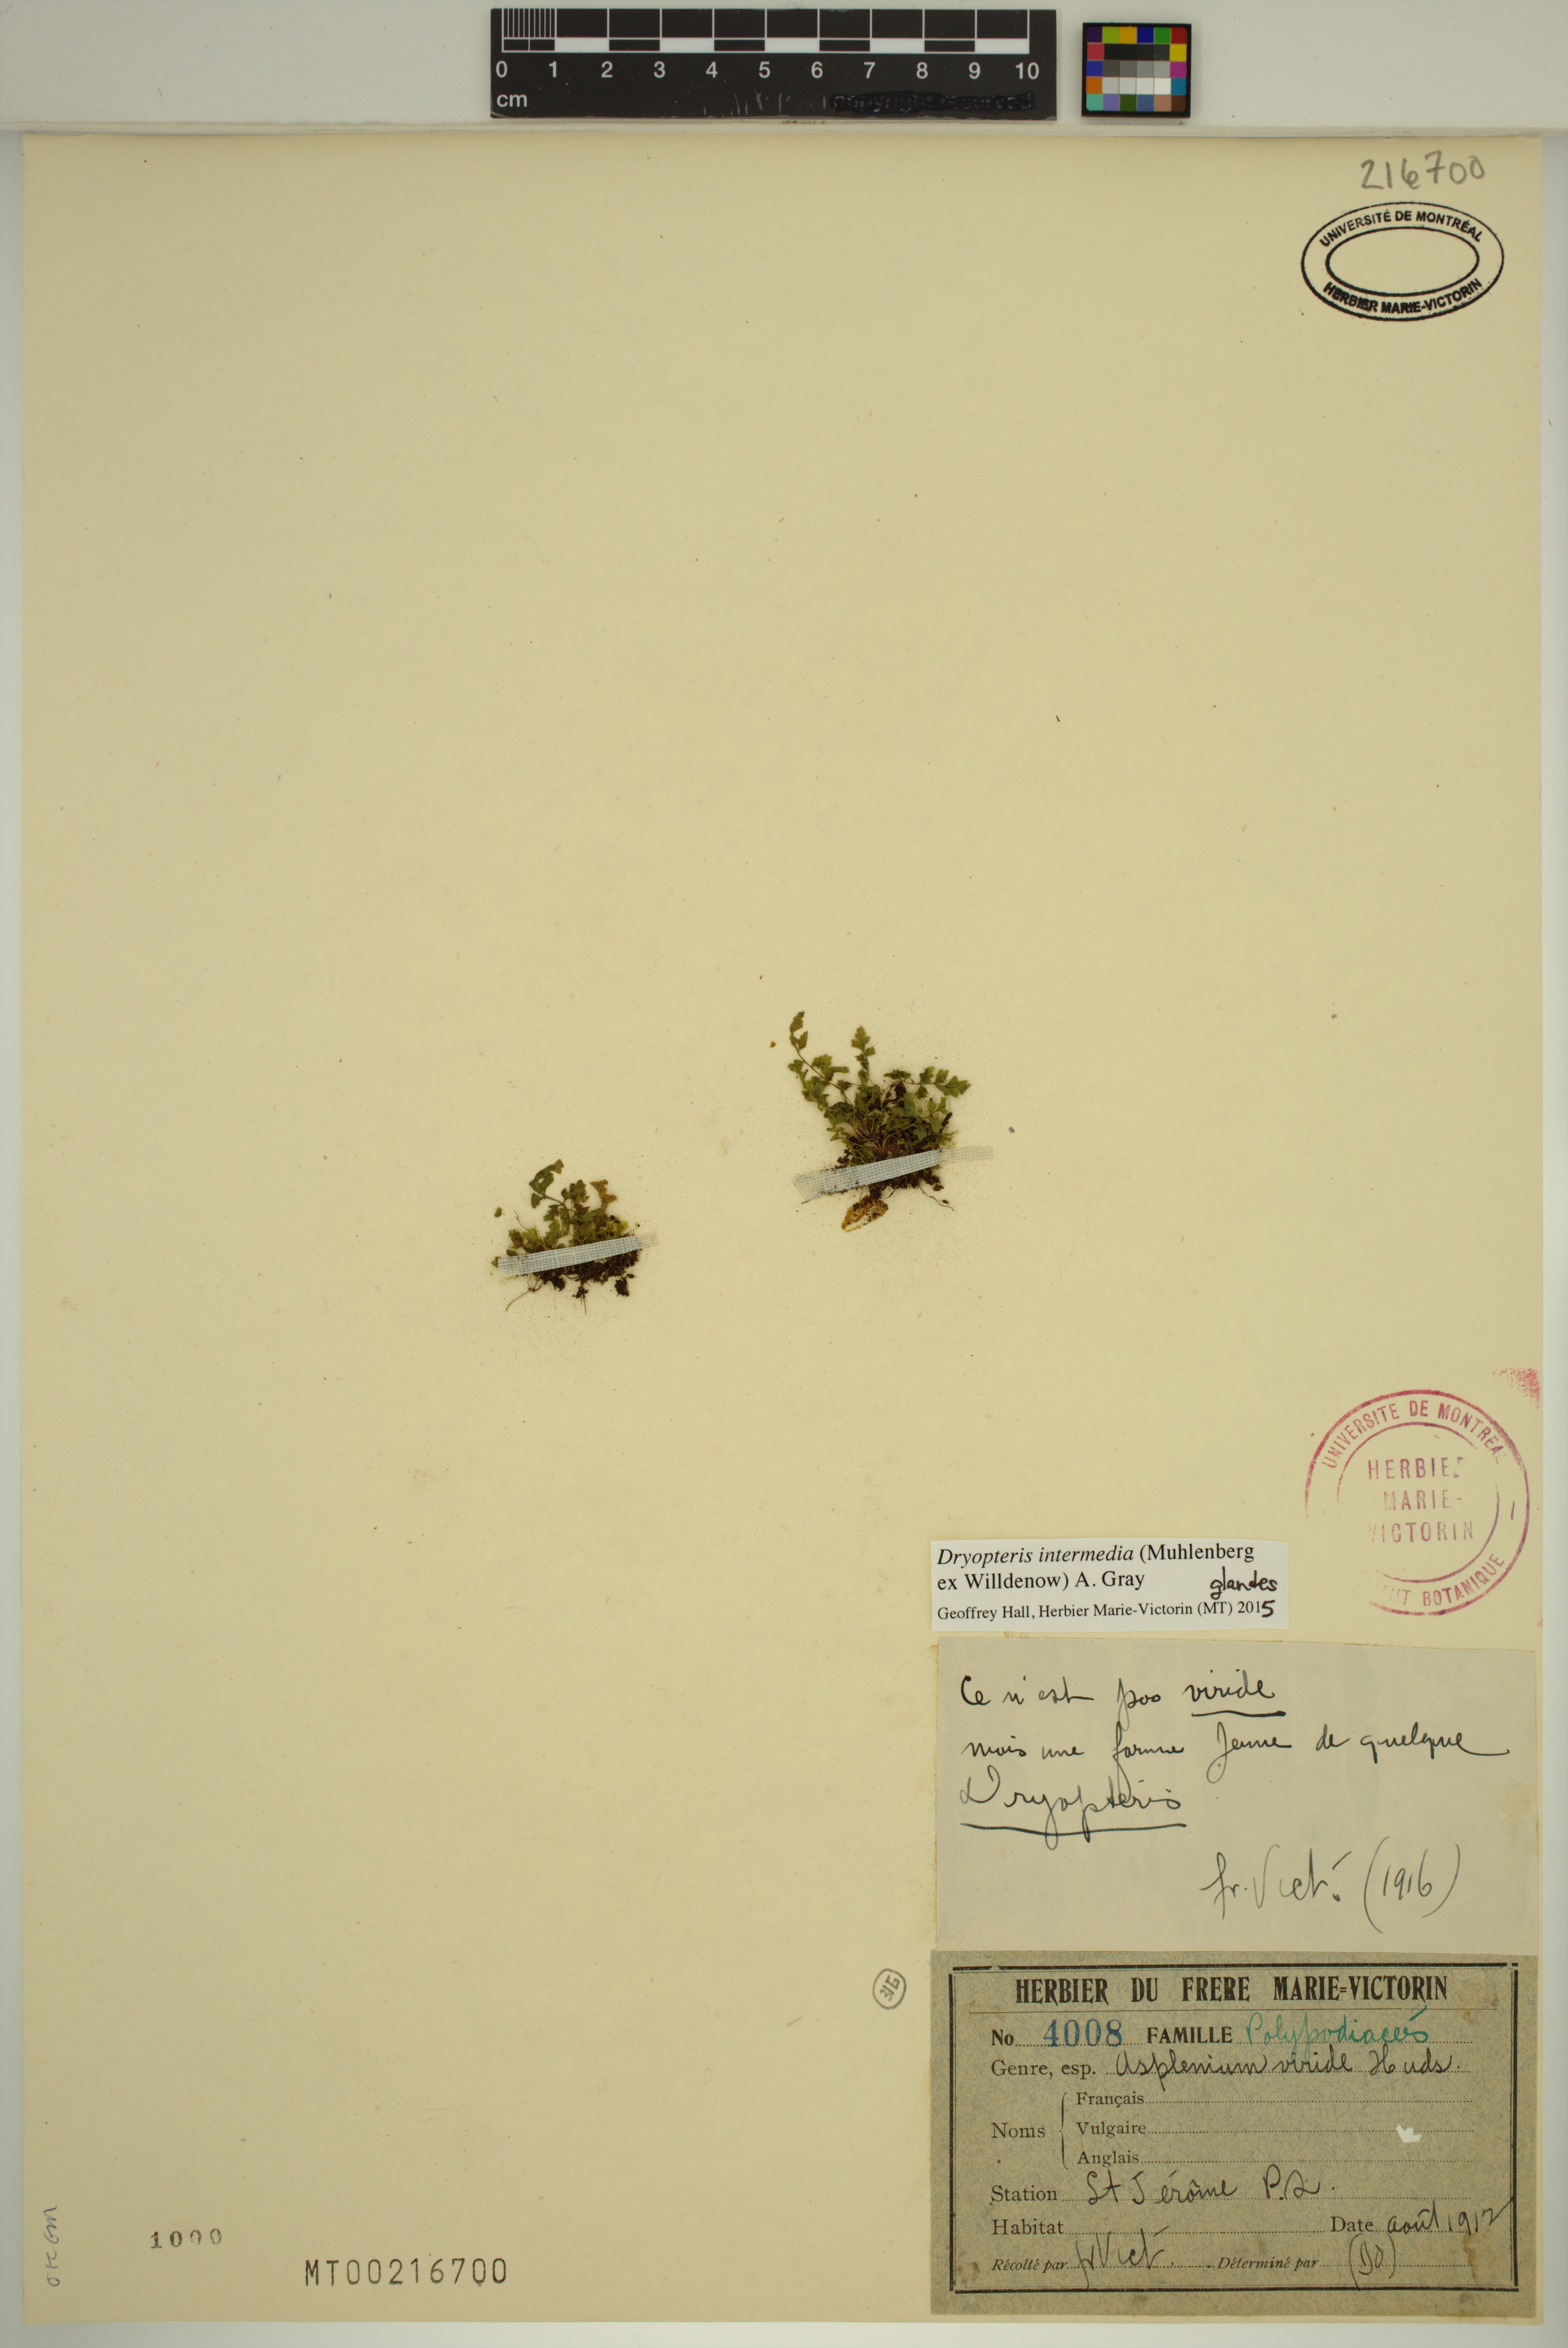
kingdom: Plantae
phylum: Tracheophyta
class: Polypodiopsida
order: Polypodiales
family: Dryopteridaceae
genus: Dryopteris
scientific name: Dryopteris intermedia
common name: Evergreen wood fern
